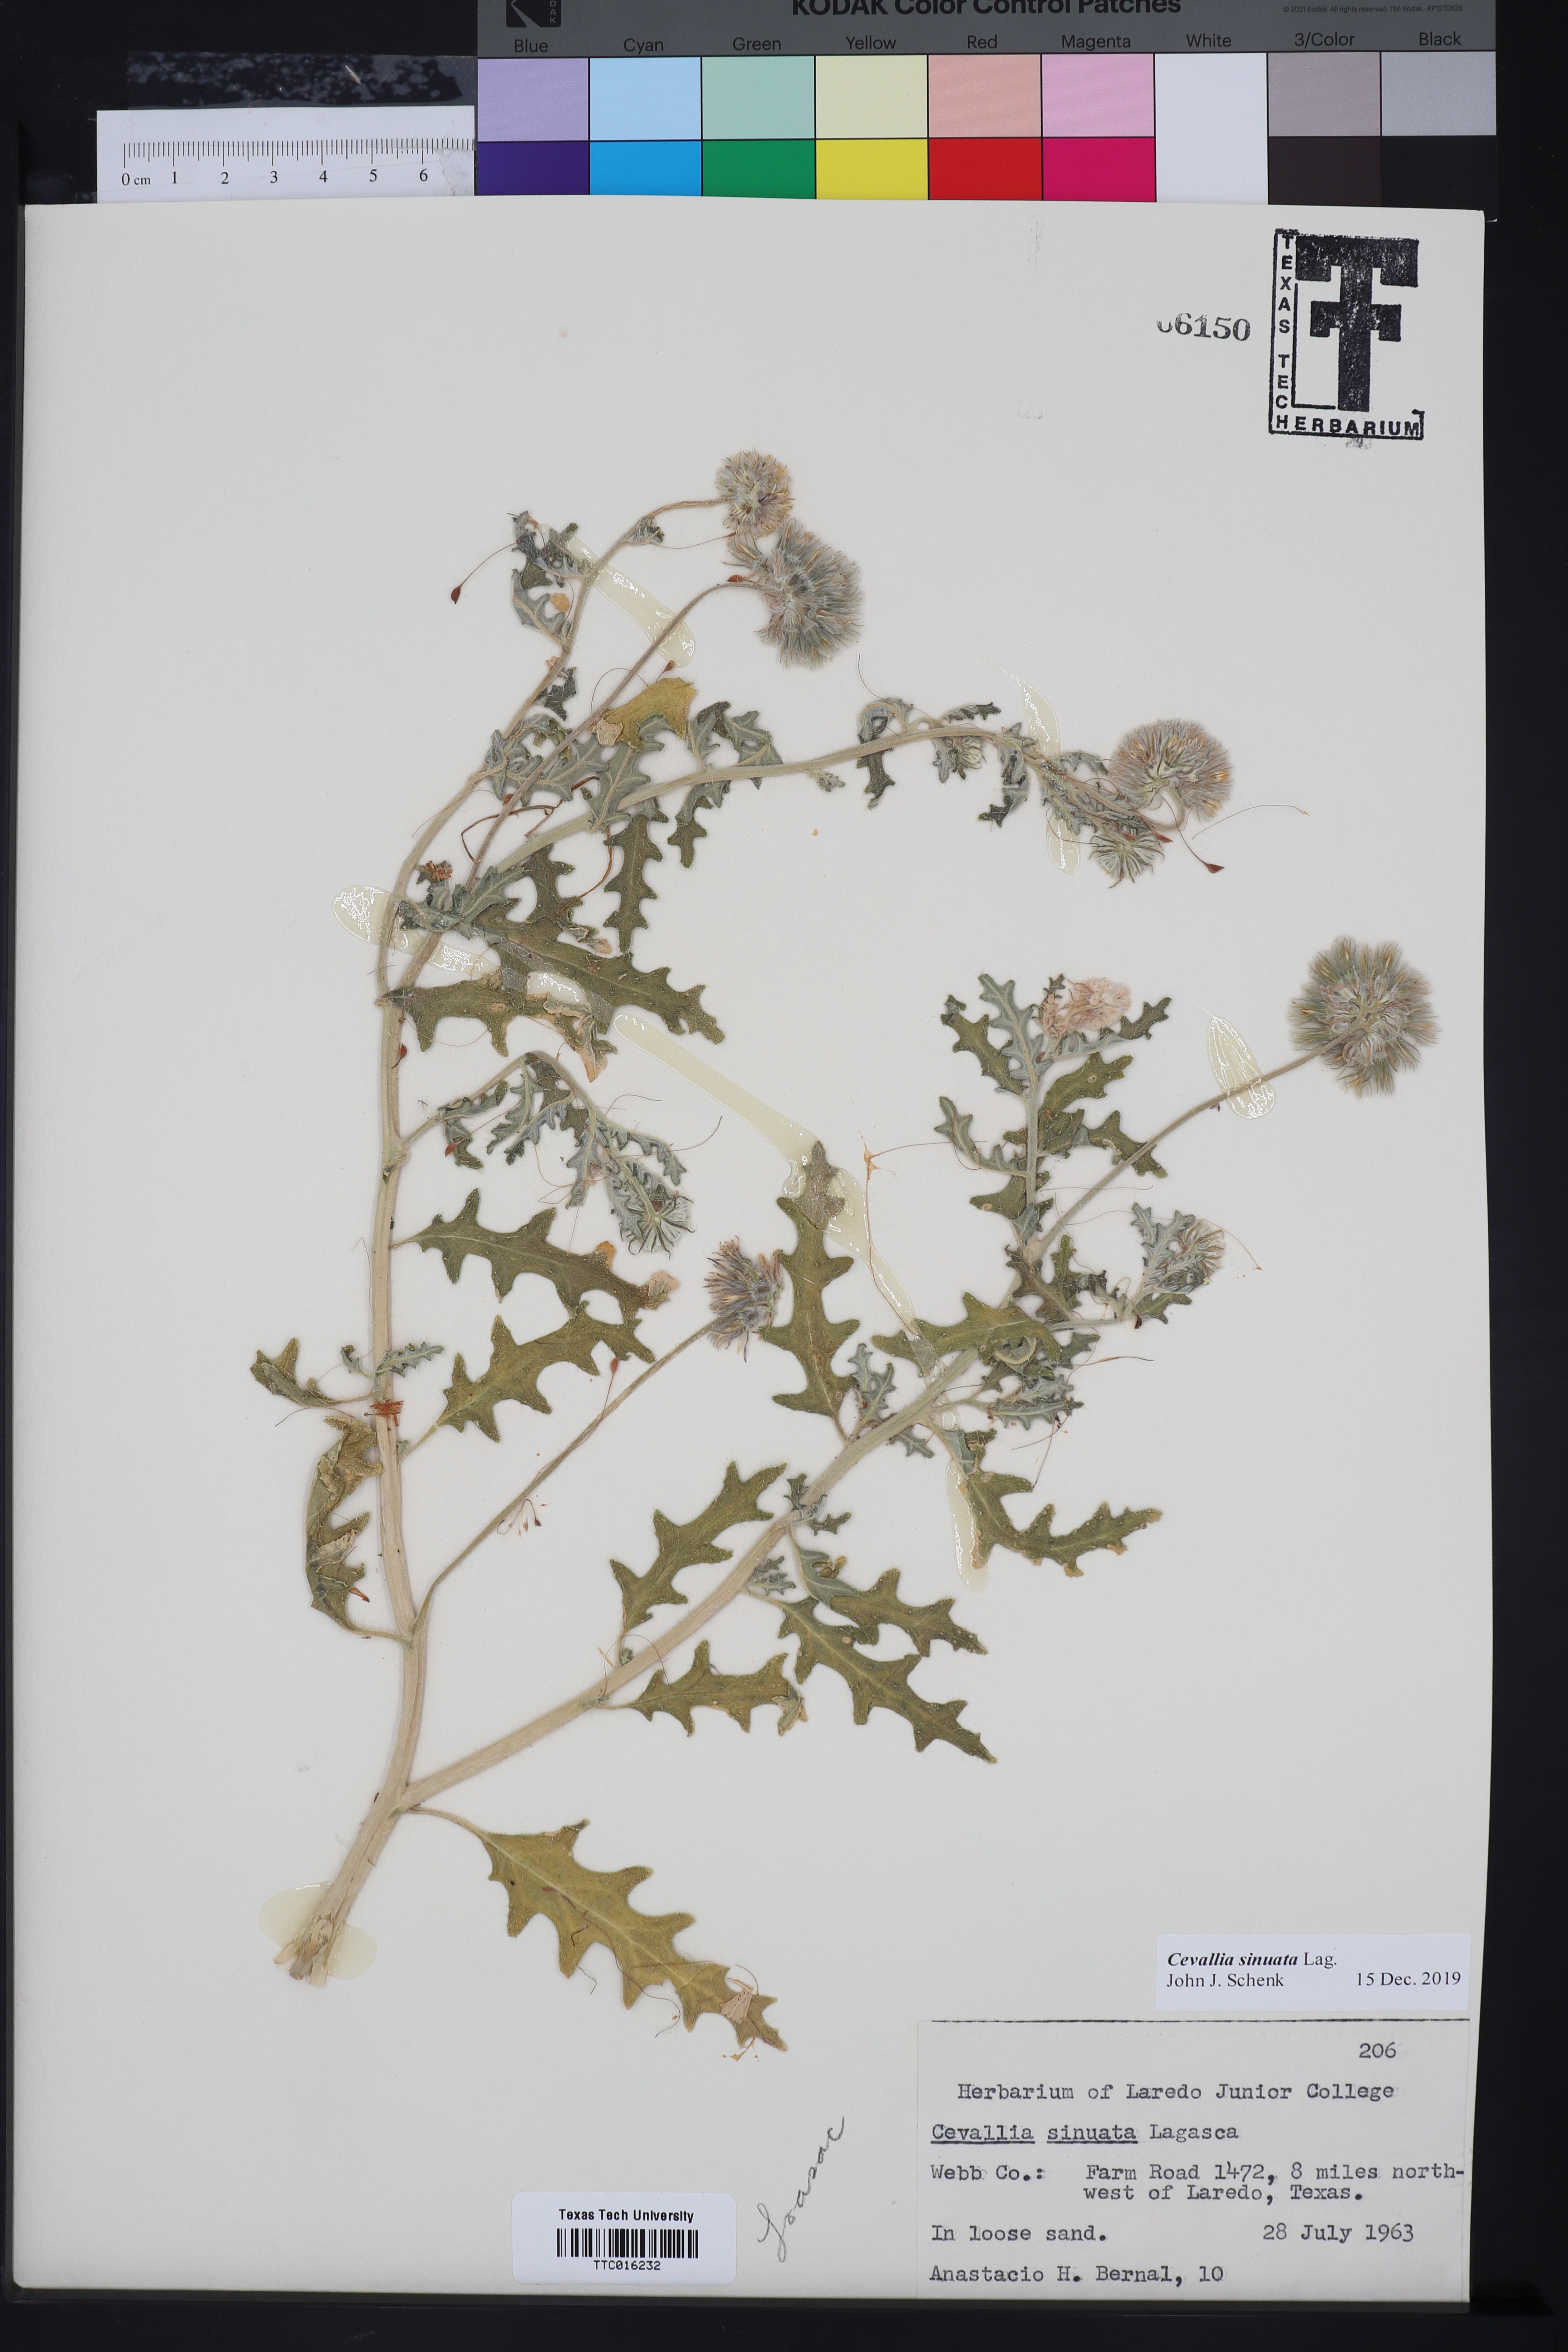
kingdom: Plantae
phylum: Tracheophyta
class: Magnoliopsida
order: Cornales
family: Loasaceae
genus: Cevallia
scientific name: Cevallia sinuata
